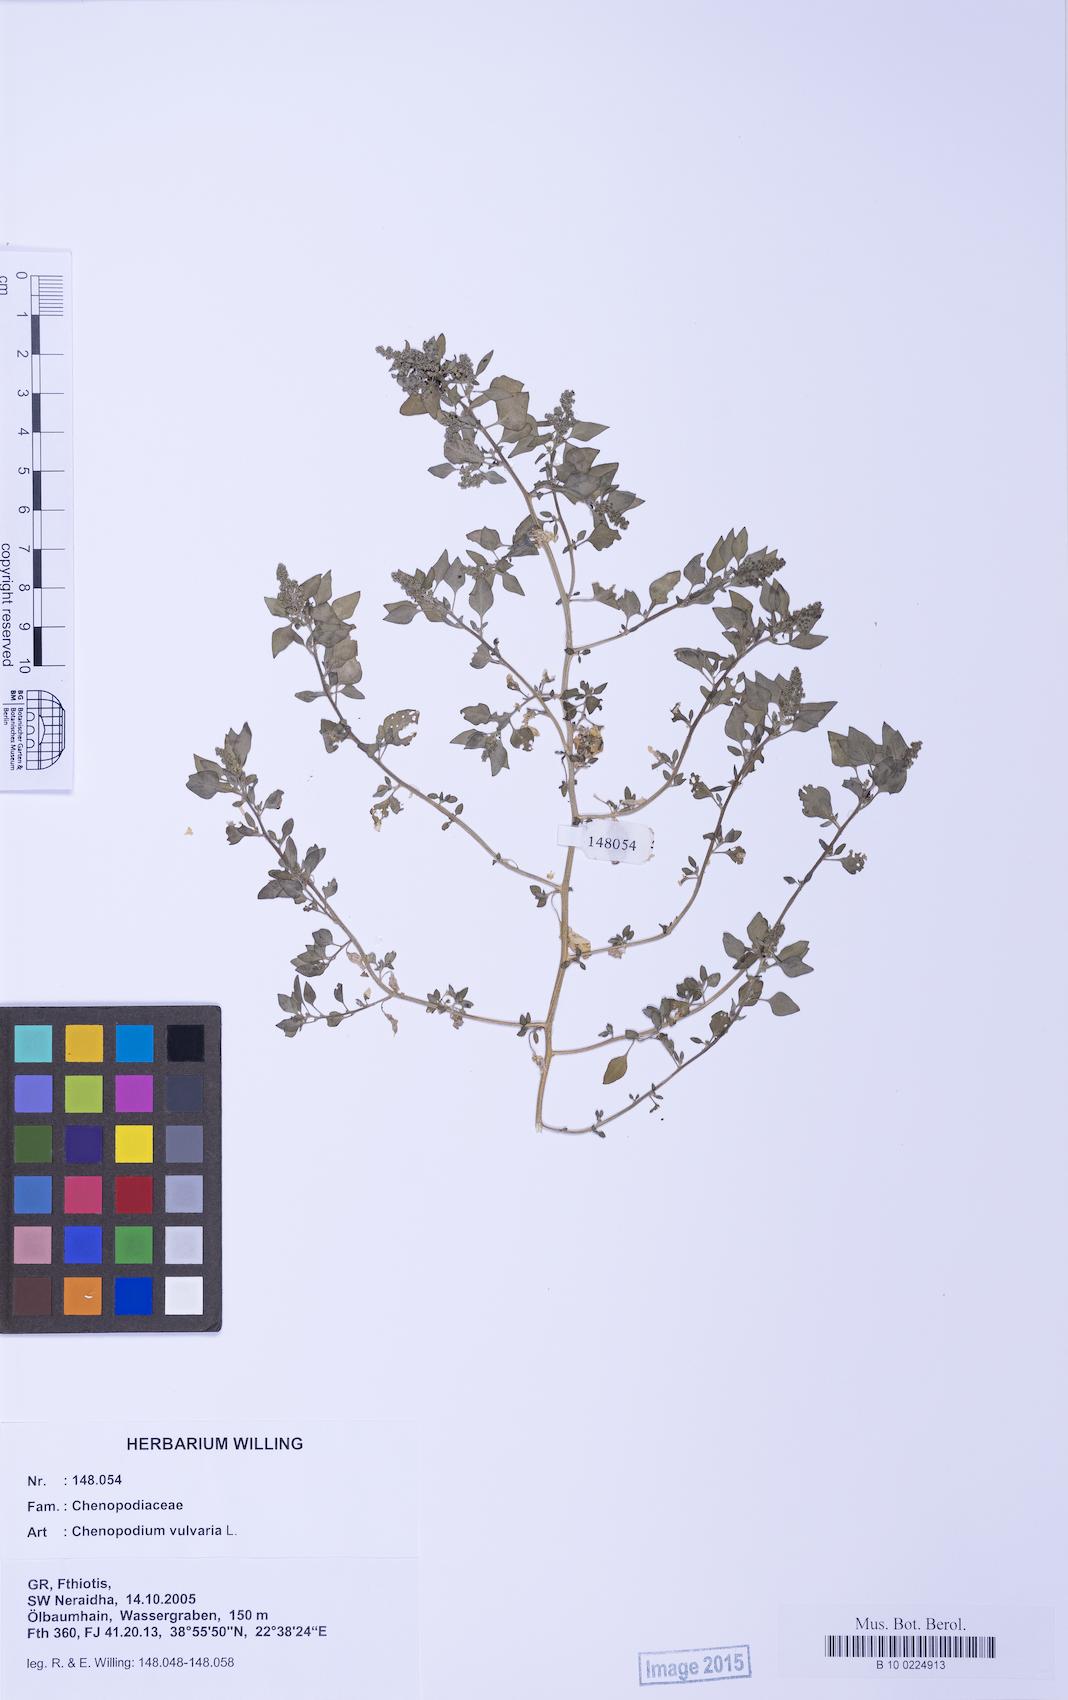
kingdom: Plantae
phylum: Tracheophyta
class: Magnoliopsida
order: Caryophyllales
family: Amaranthaceae
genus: Chenopodium
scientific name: Chenopodium vulvaria
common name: Stinking goosefoot
